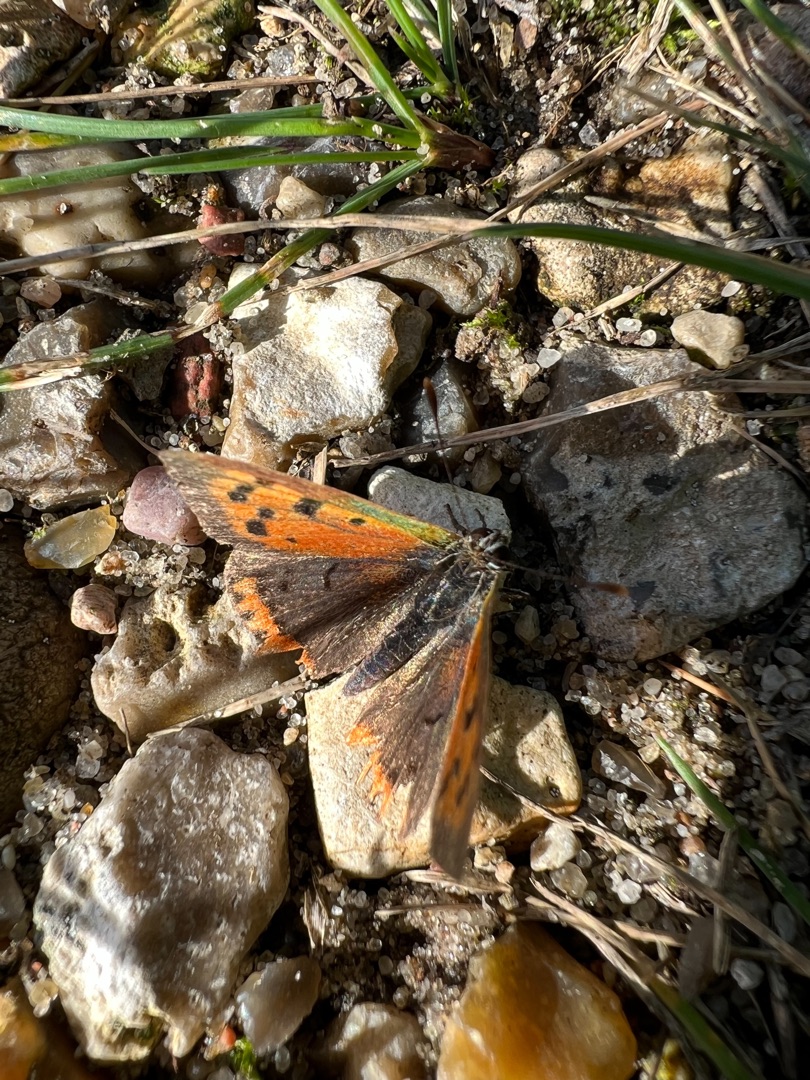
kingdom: Animalia
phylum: Arthropoda
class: Insecta
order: Lepidoptera
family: Lycaenidae
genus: Lycaena
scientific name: Lycaena phlaeas
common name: Lille ildfugl
